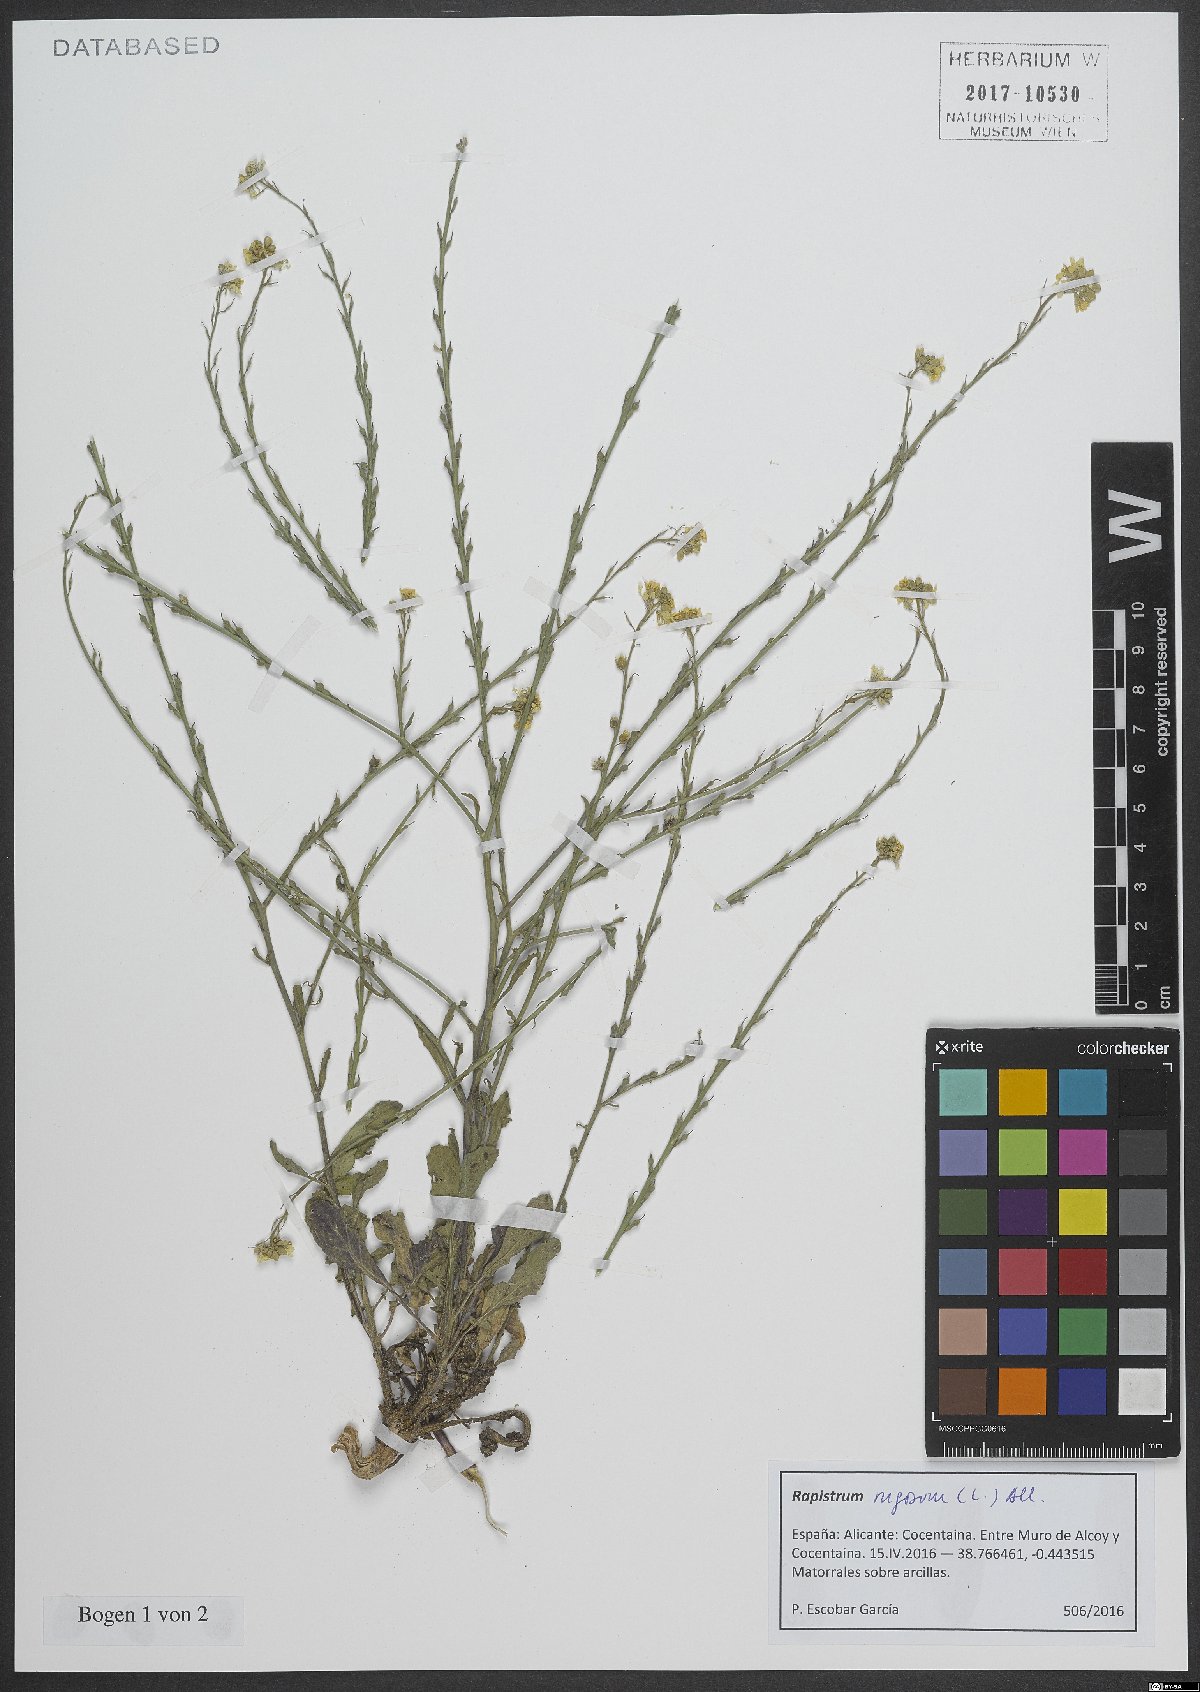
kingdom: Plantae
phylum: Tracheophyta
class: Magnoliopsida
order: Brassicales
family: Brassicaceae
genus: Rapistrum
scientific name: Rapistrum rugosum
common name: Annual bastardcabbage
